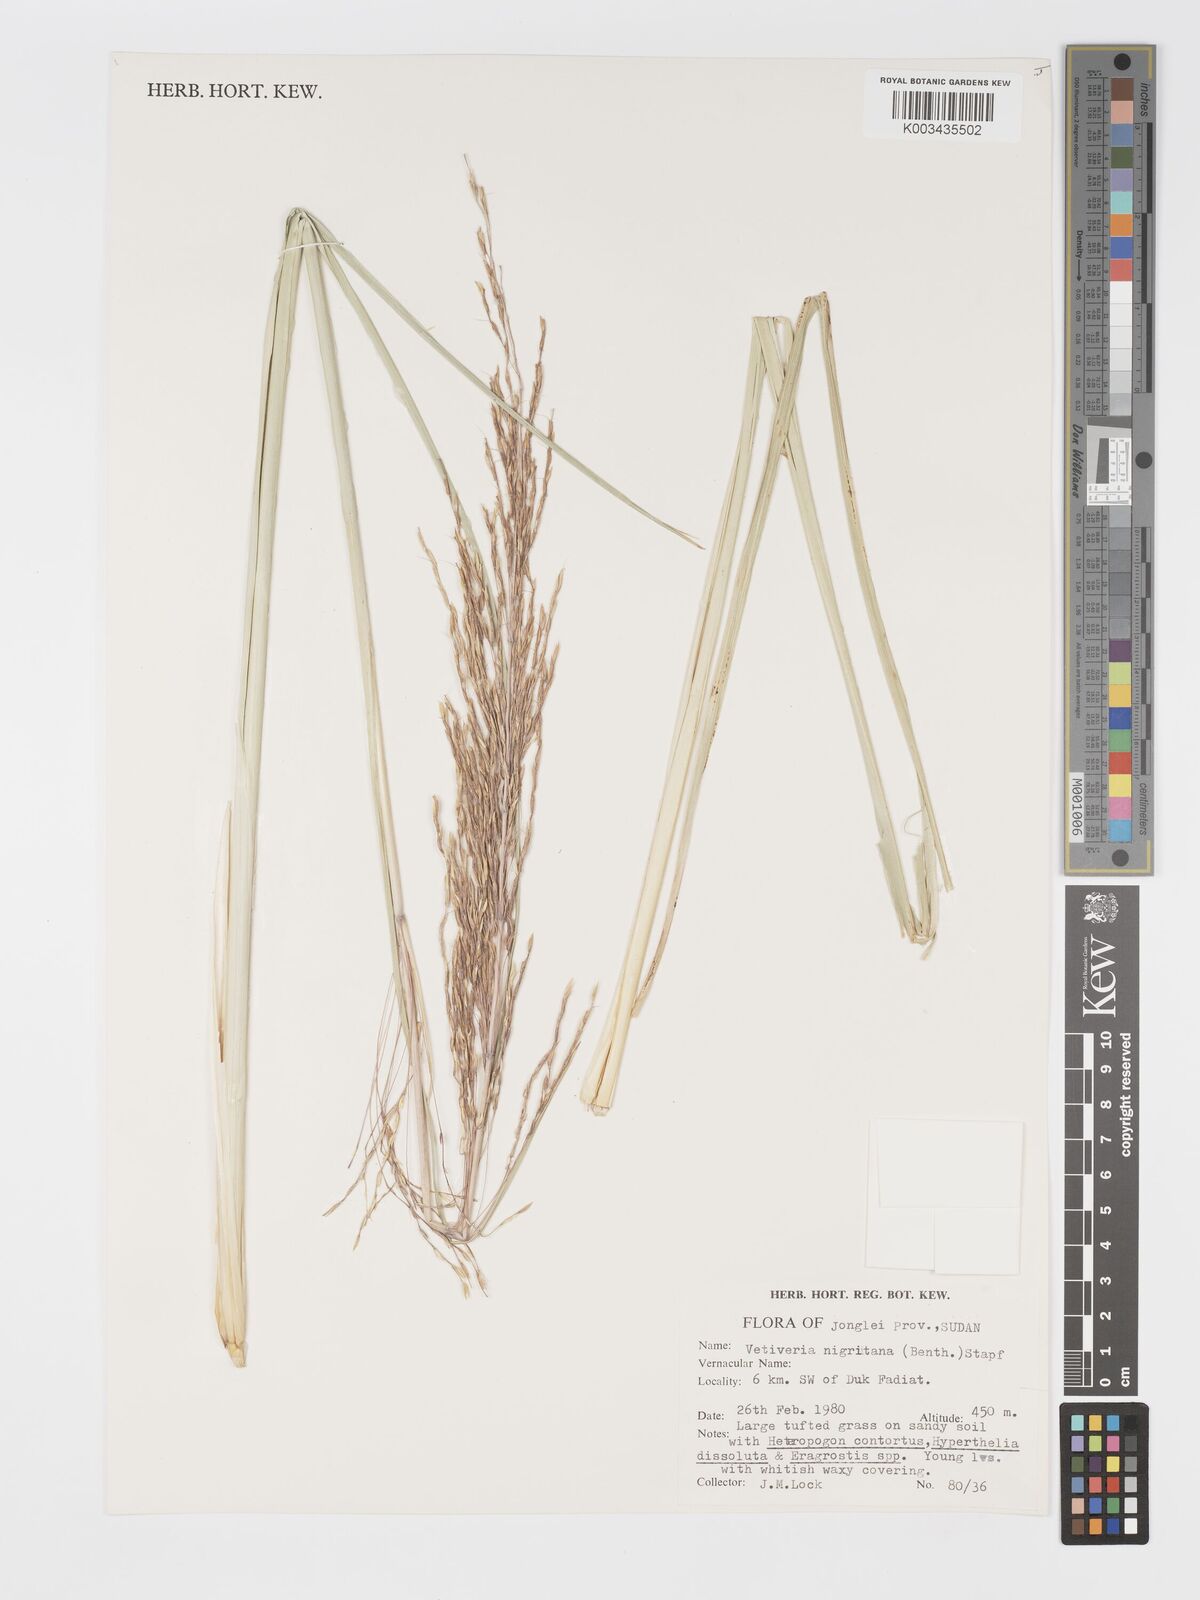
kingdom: Plantae
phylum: Tracheophyta
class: Liliopsida
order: Poales
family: Poaceae
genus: Chrysopogon
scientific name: Chrysopogon nigritanus
